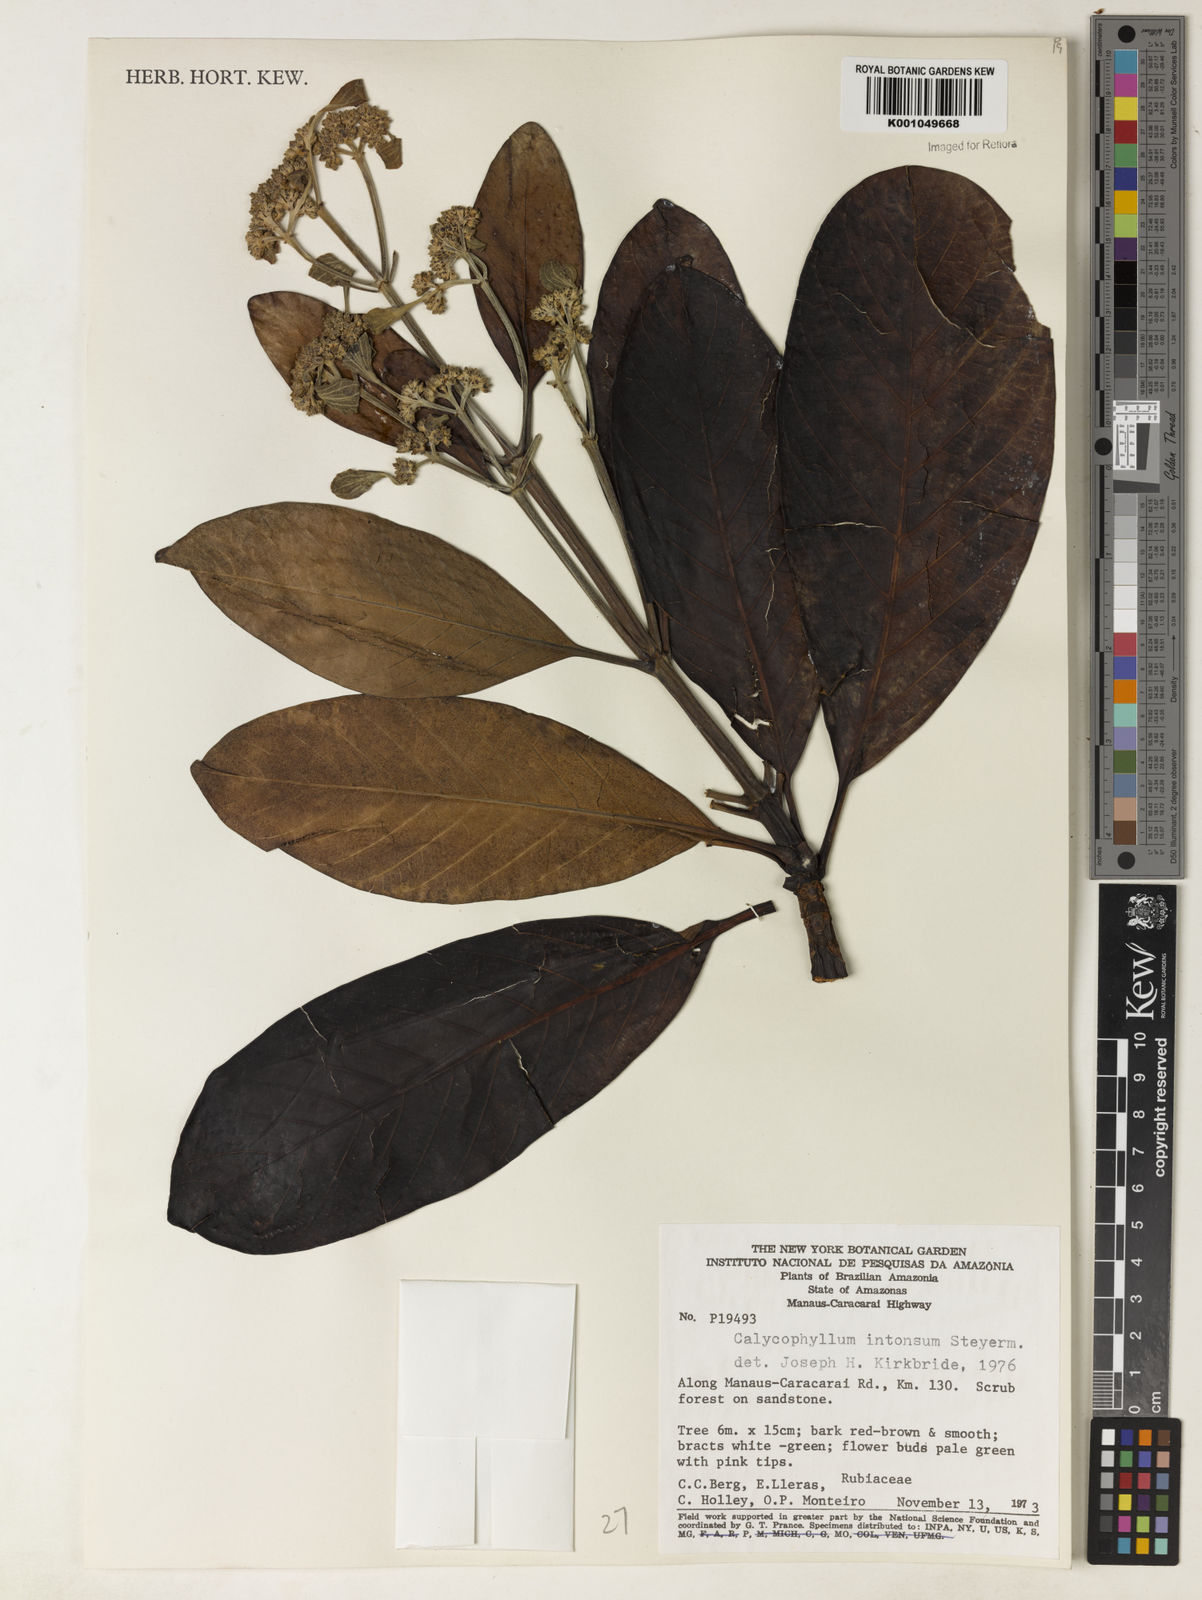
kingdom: Plantae
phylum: Tracheophyta
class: Magnoliopsida
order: Gentianales
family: Rubiaceae
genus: Calycophyllum
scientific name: Calycophyllum intonsum
